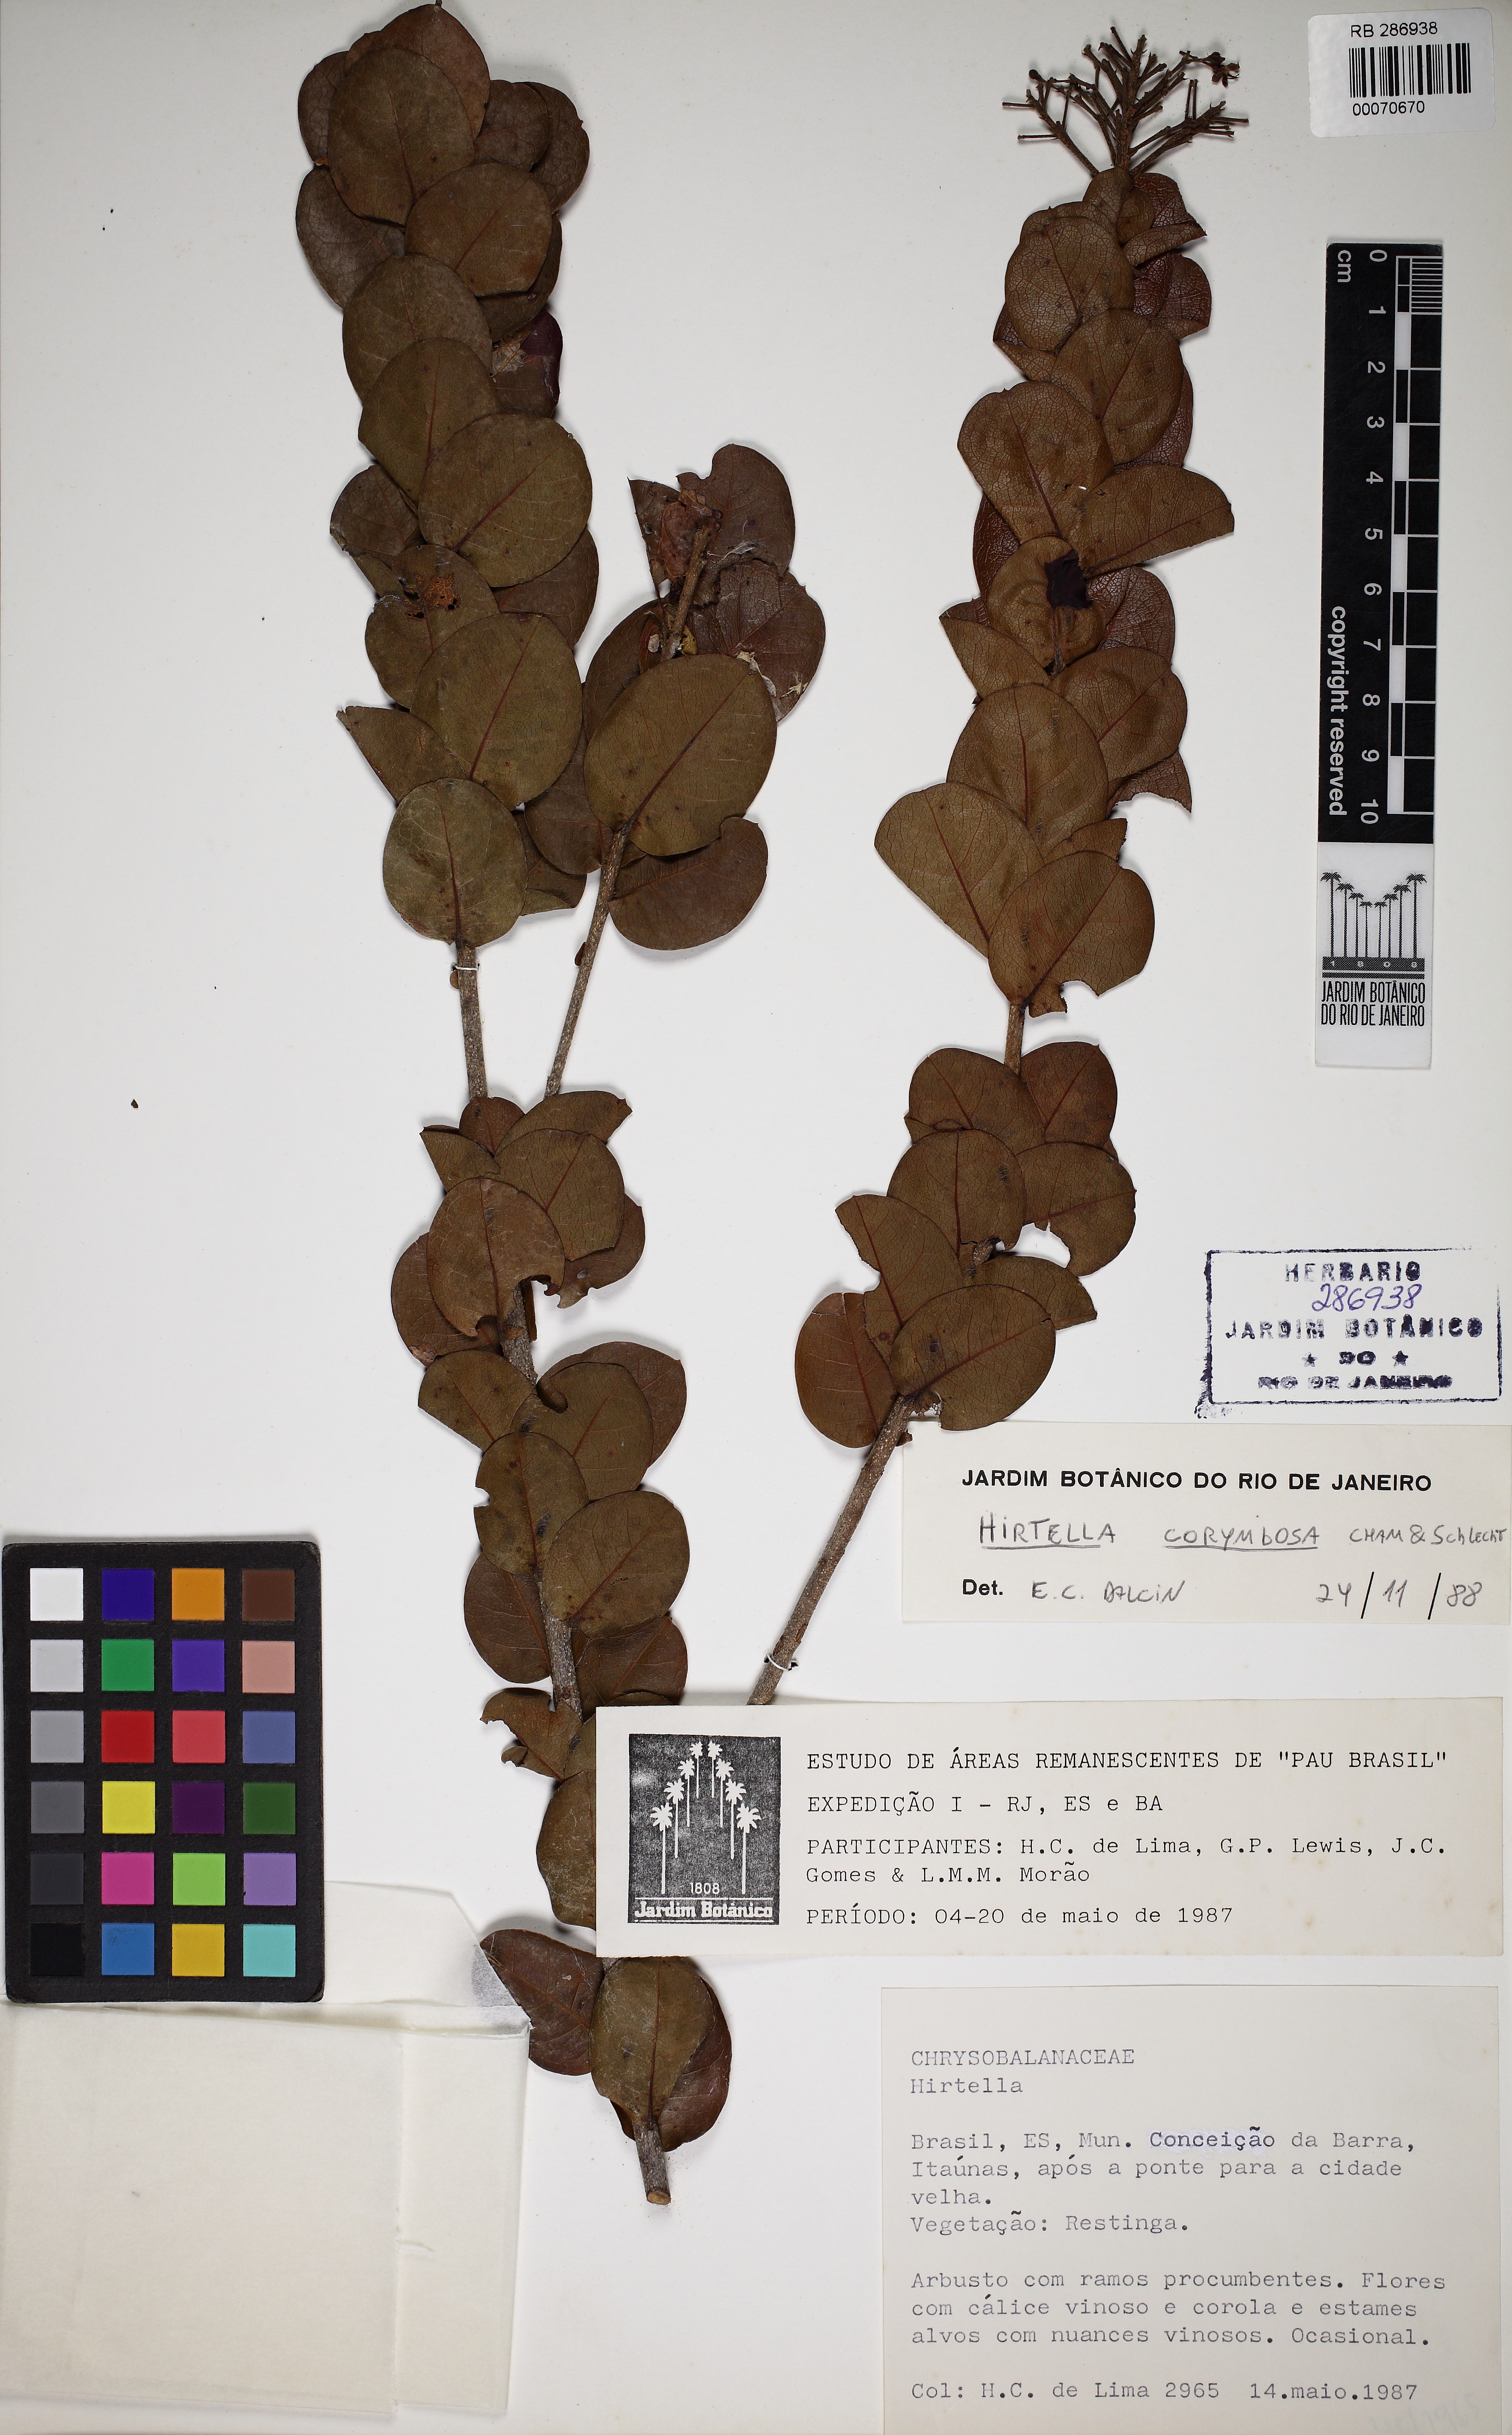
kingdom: Plantae
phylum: Tracheophyta
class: Magnoliopsida
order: Malpighiales
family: Chrysobalanaceae
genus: Hirtella
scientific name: Hirtella corymbosa
